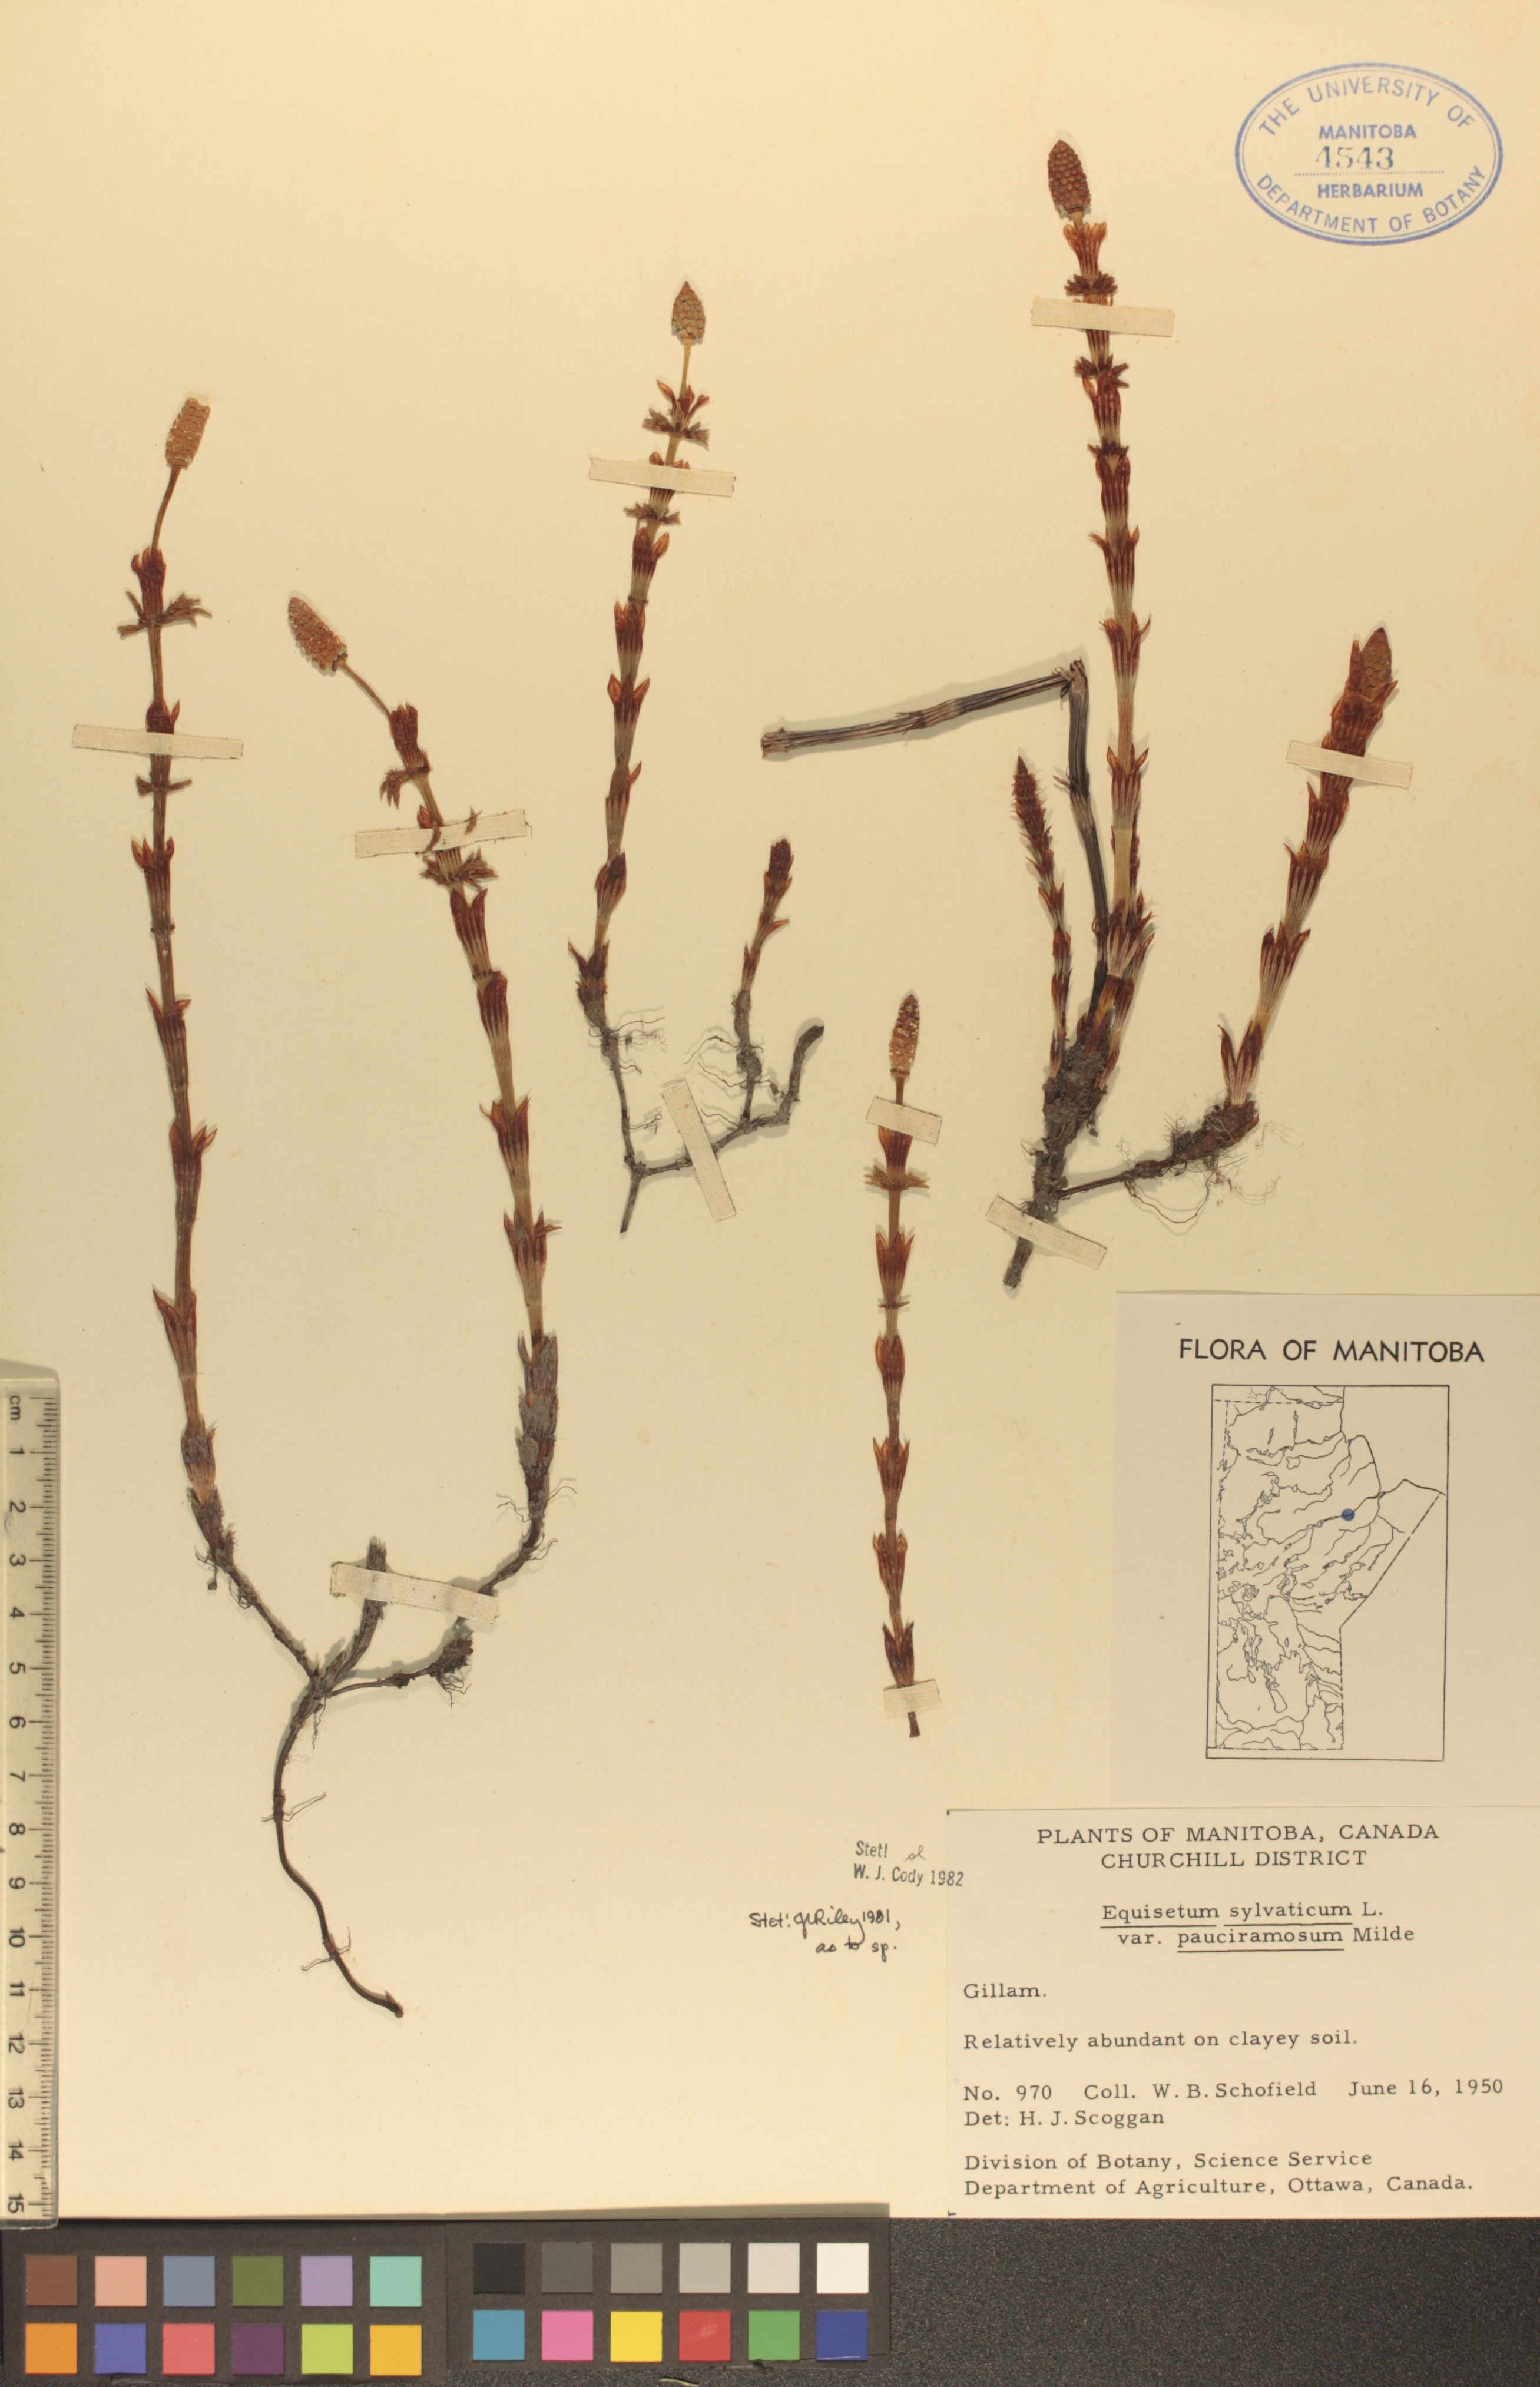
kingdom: Plantae
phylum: Tracheophyta
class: Polypodiopsida
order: Equisetales
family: Equisetaceae
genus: Equisetum
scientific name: Equisetum sylvaticum
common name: Wood horsetail
